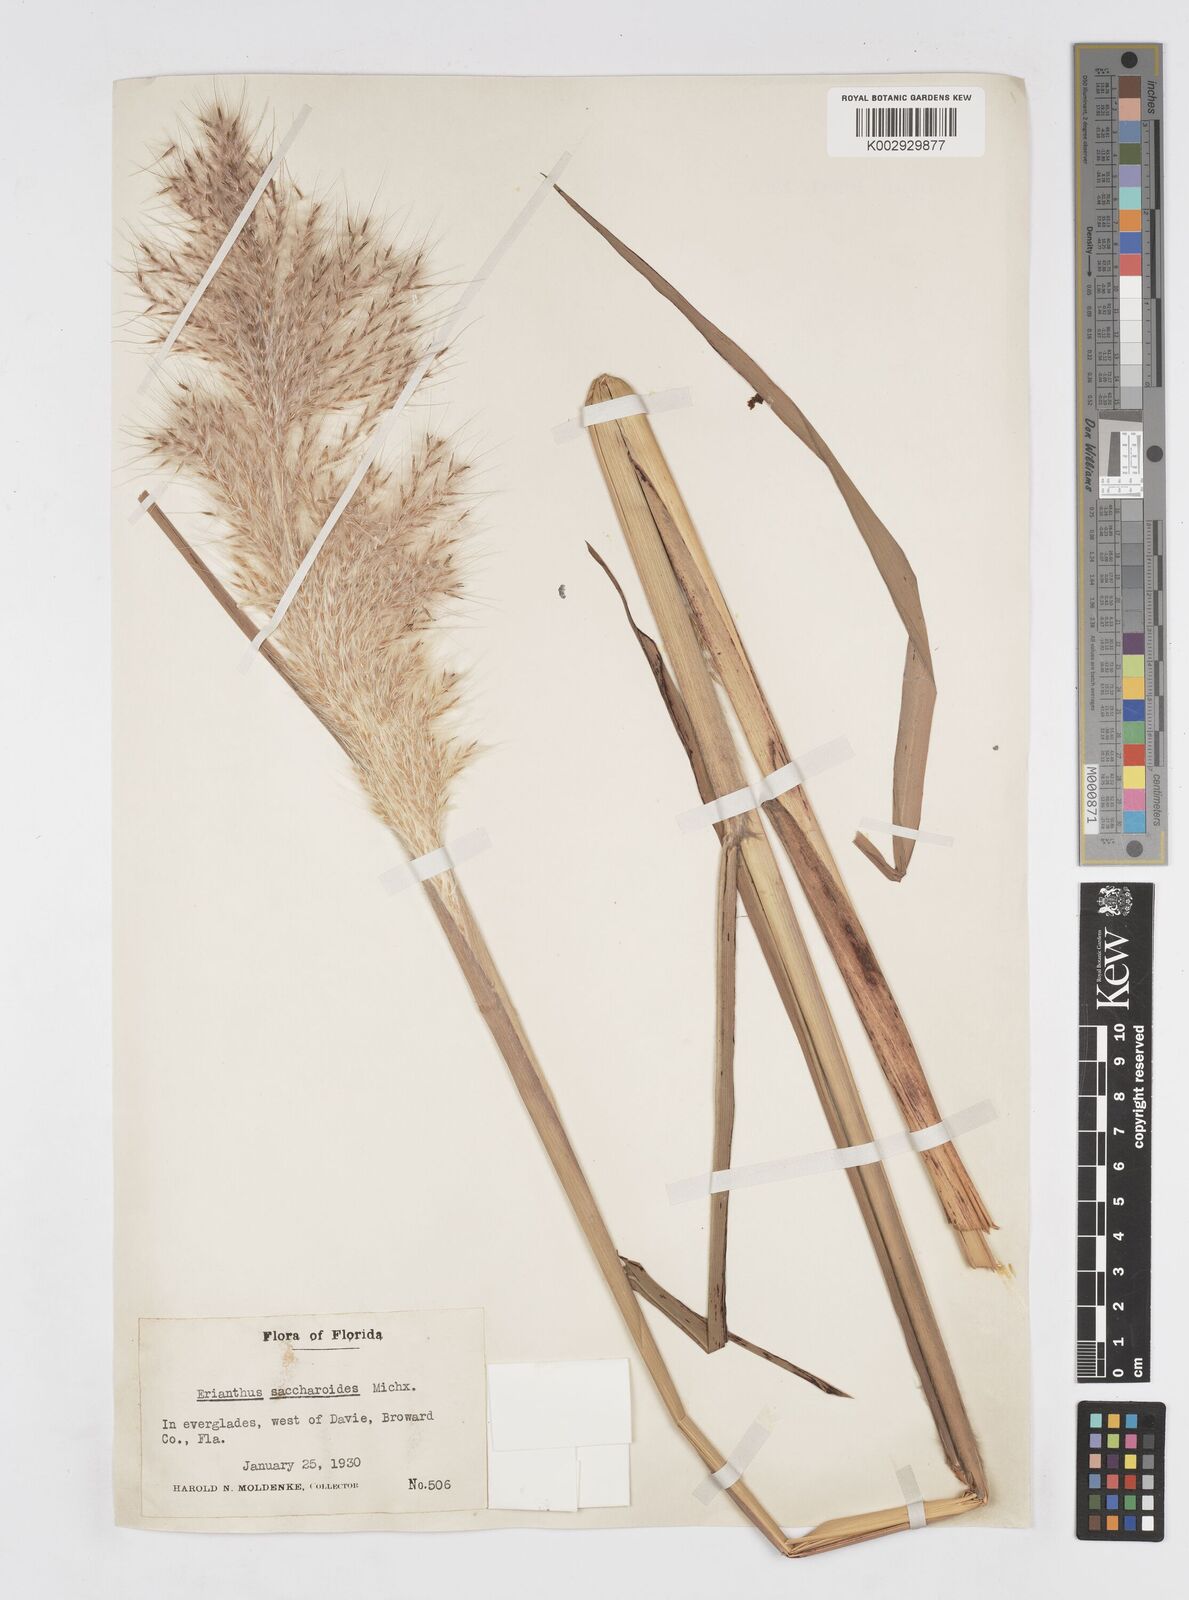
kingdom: Plantae
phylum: Tracheophyta
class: Liliopsida
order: Poales
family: Poaceae
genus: Saccharum
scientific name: Saccharum
